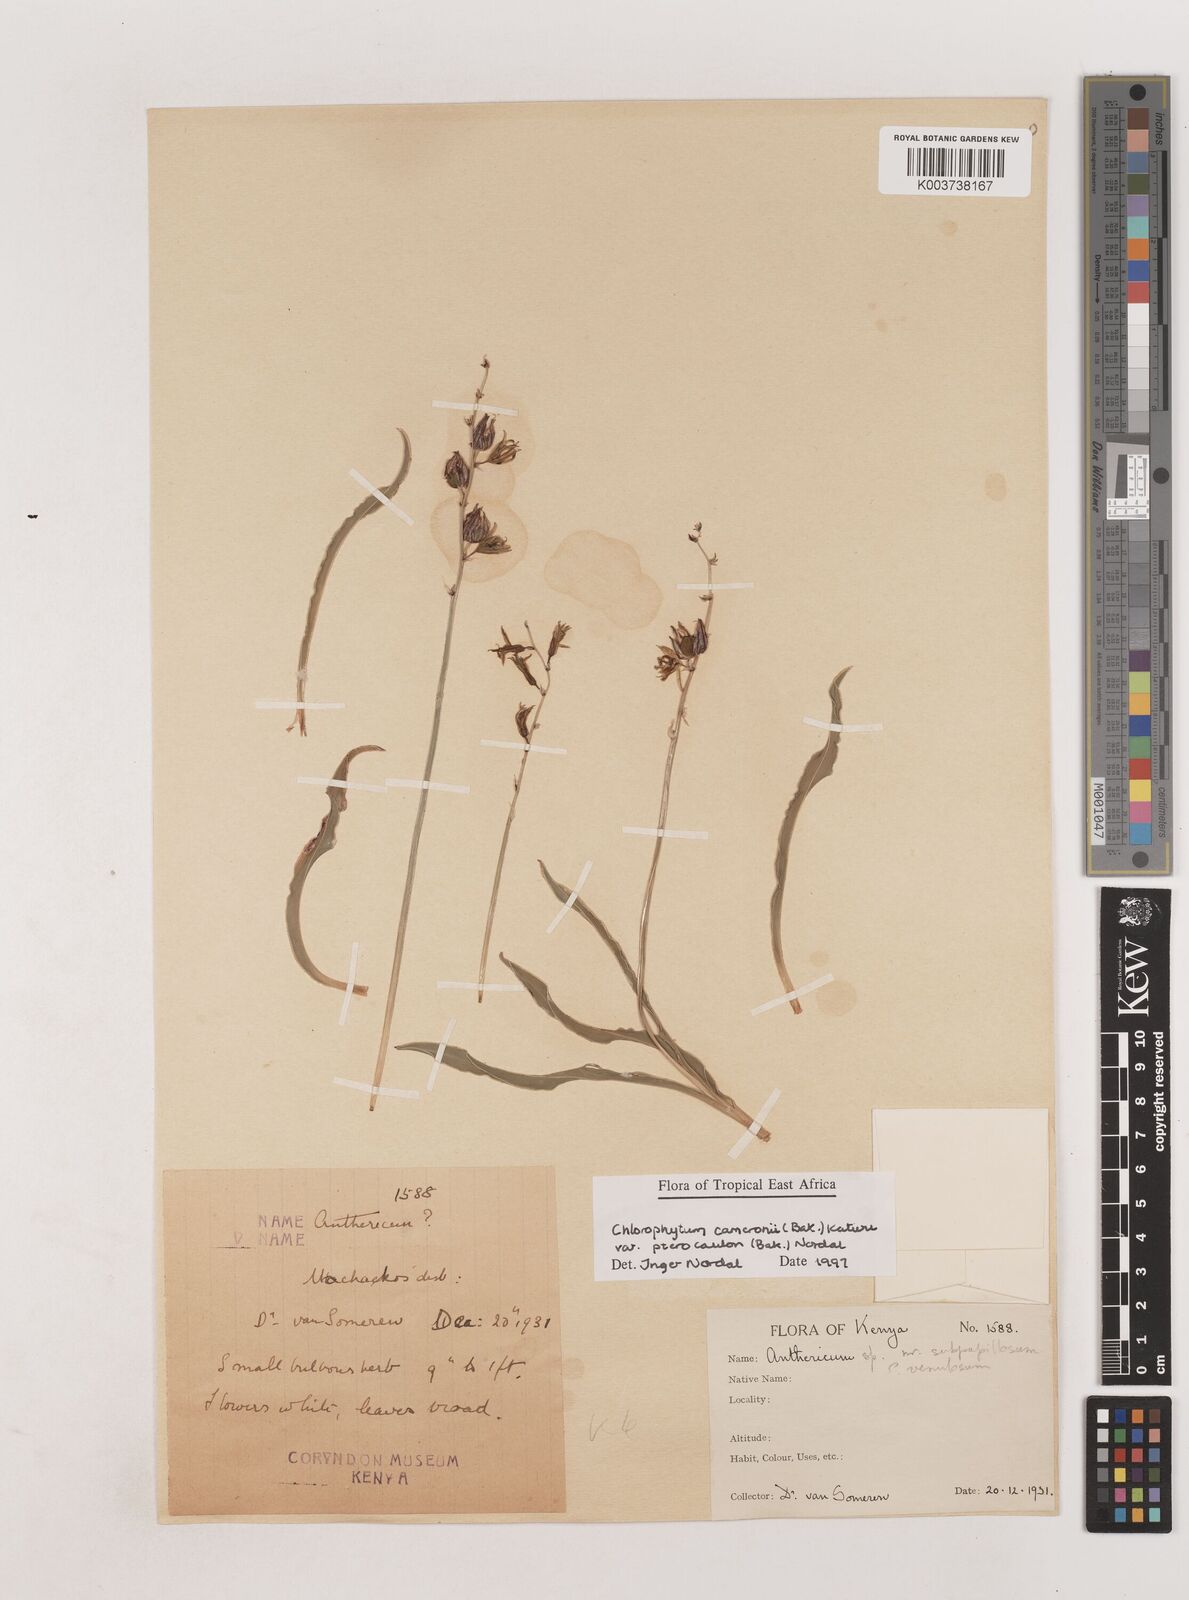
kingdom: Plantae
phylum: Tracheophyta
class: Liliopsida
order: Asparagales
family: Asparagaceae
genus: Chlorophytum
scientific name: Chlorophytum cameronii
